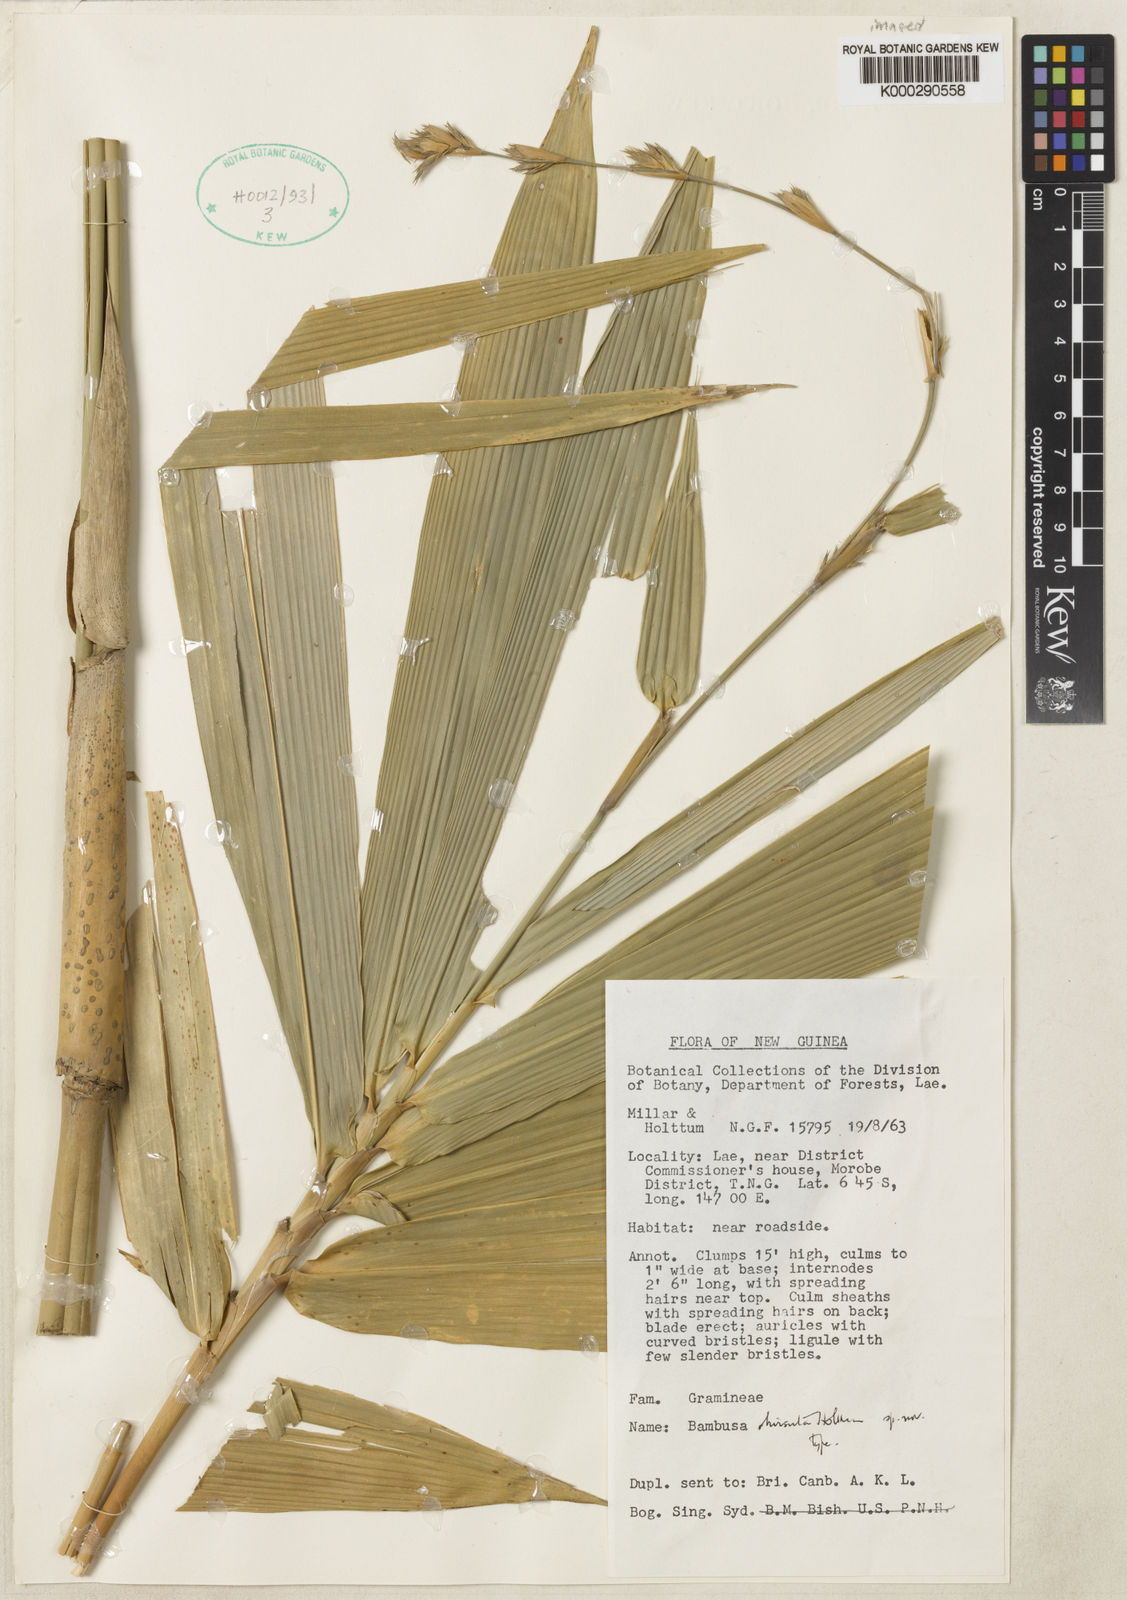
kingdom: Plantae
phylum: Tracheophyta
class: Liliopsida
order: Poales
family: Poaceae
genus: Neololeba
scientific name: Neololeba hirsuta
